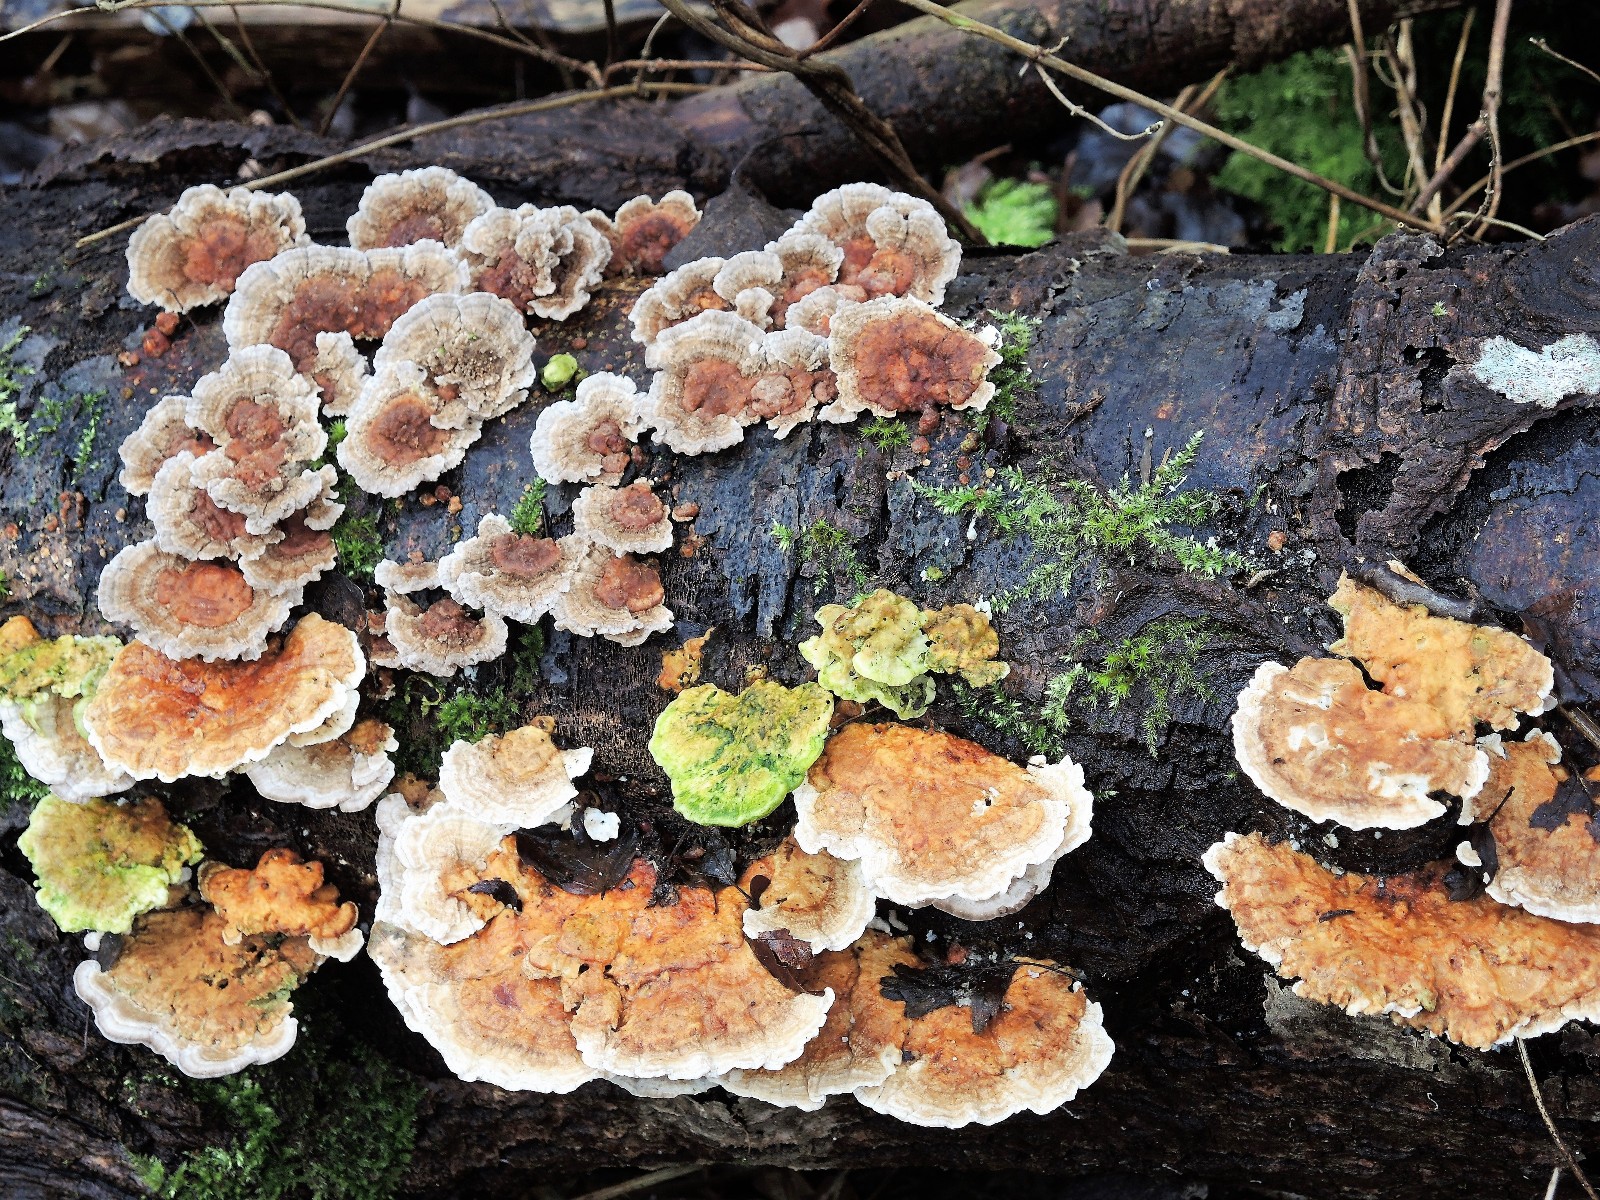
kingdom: Fungi
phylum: Basidiomycota
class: Agaricomycetes
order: Polyporales
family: Polyporaceae
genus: Trametes
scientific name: Trametes ochracea
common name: bæltet læderporesvamp
